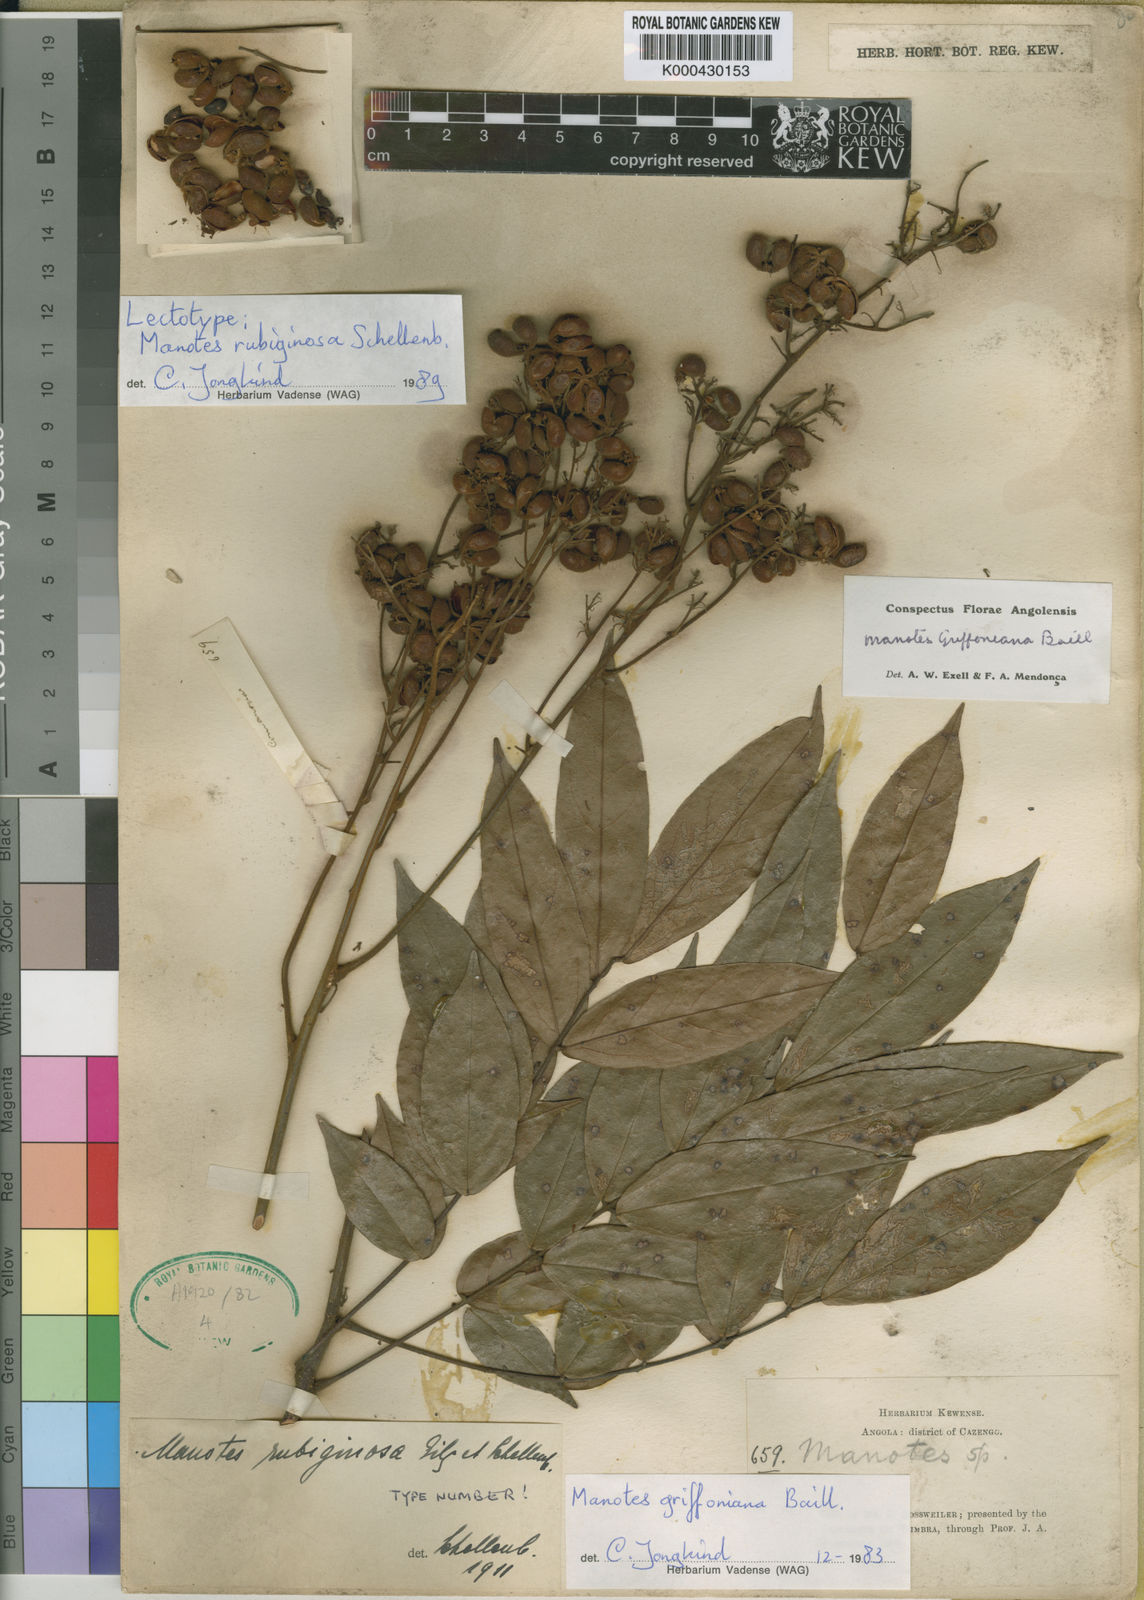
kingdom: Plantae
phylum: Tracheophyta
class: Magnoliopsida
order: Oxalidales
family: Connaraceae
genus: Manotes
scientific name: Manotes griffoniana
